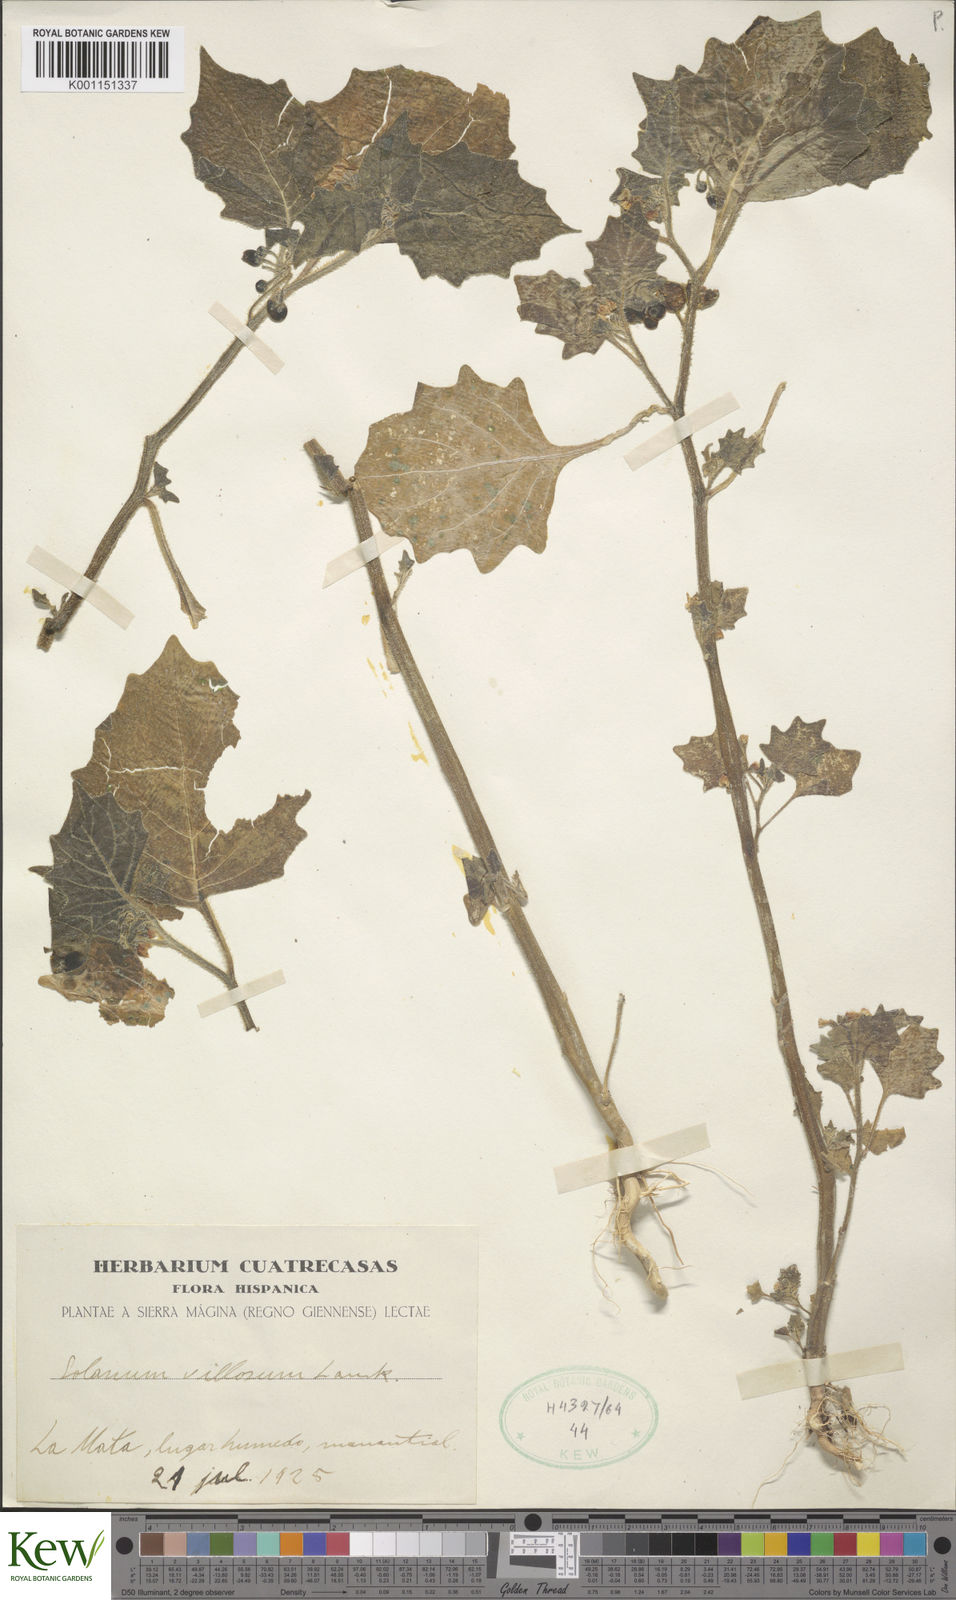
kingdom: Plantae
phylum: Tracheophyta
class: Magnoliopsida
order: Solanales
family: Solanaceae
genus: Solanum
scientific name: Solanum villosum
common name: Red nightshade
